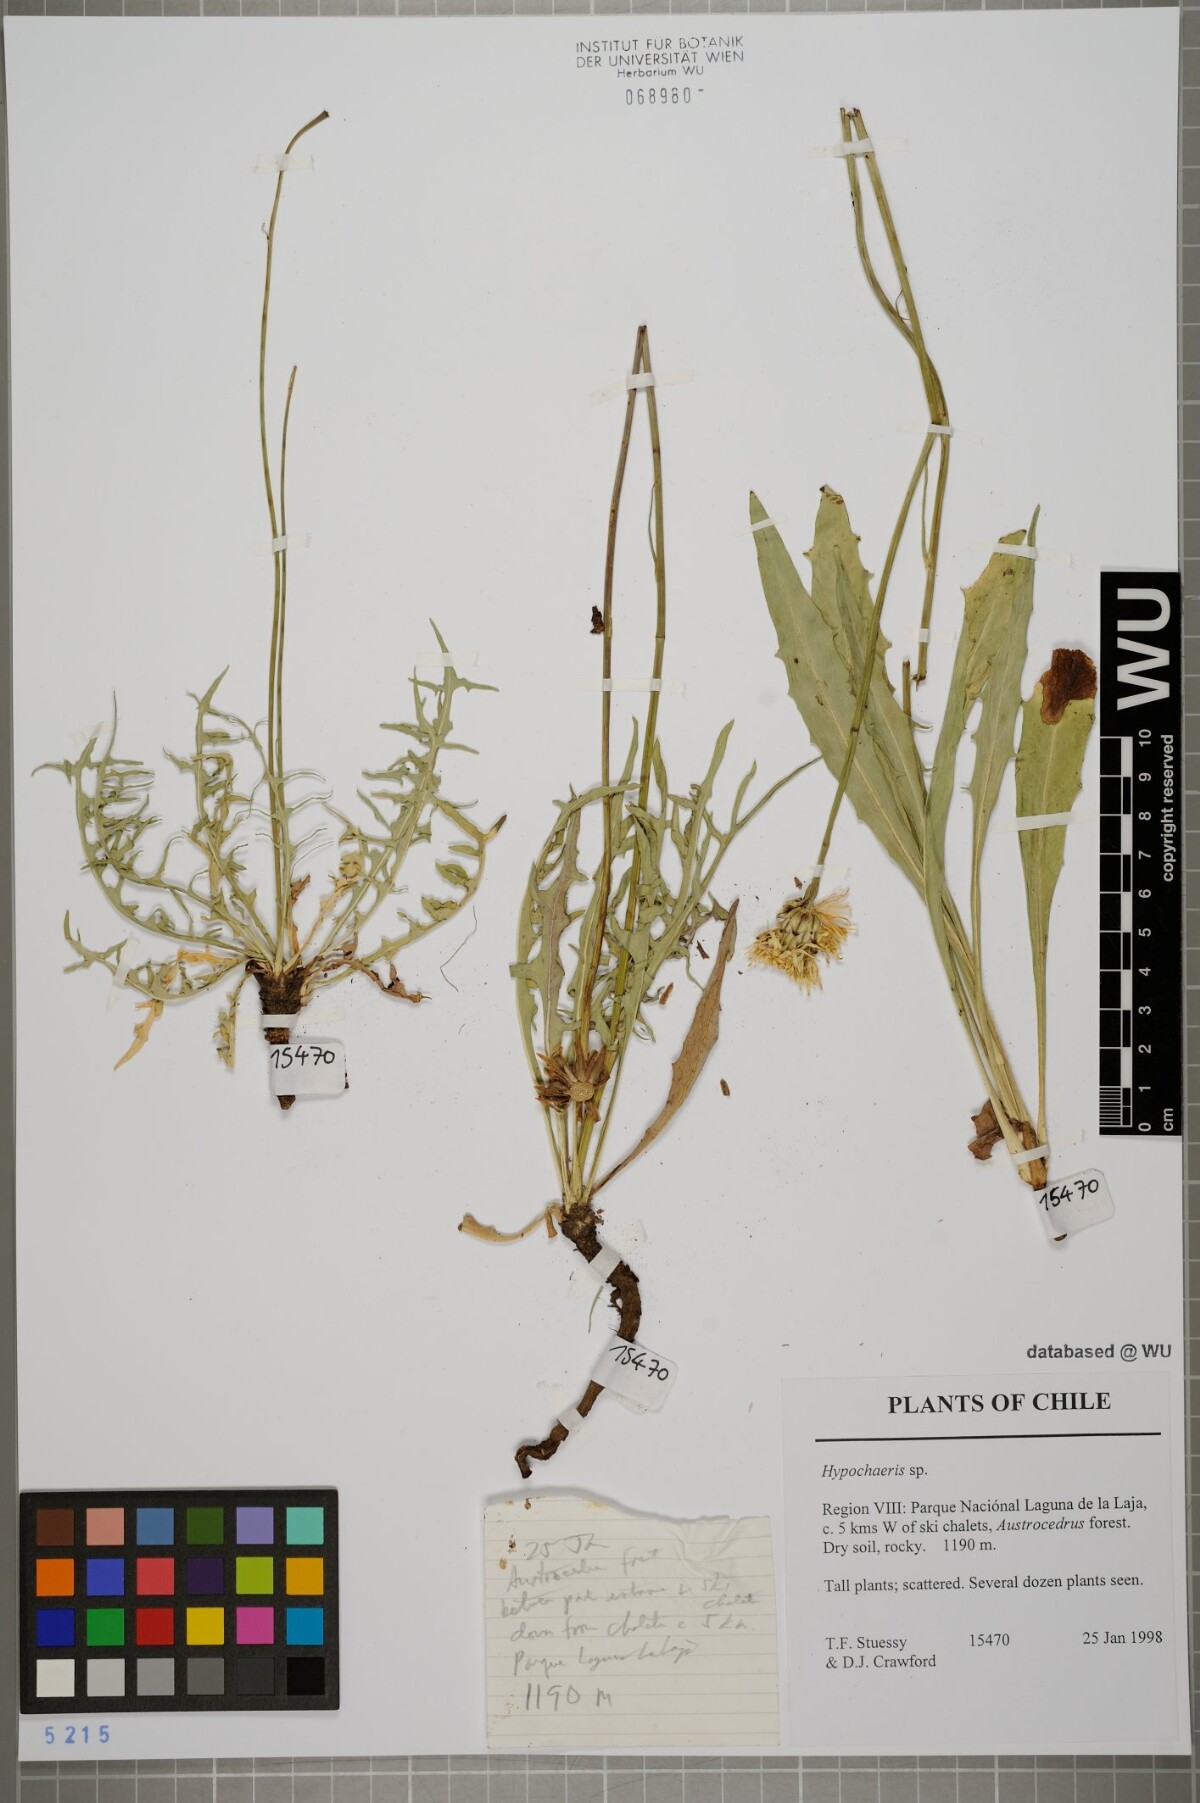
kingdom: Plantae
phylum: Tracheophyta
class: Magnoliopsida
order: Asterales
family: Asteraceae
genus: Hypochaeris
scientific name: Hypochaeris apargioides
